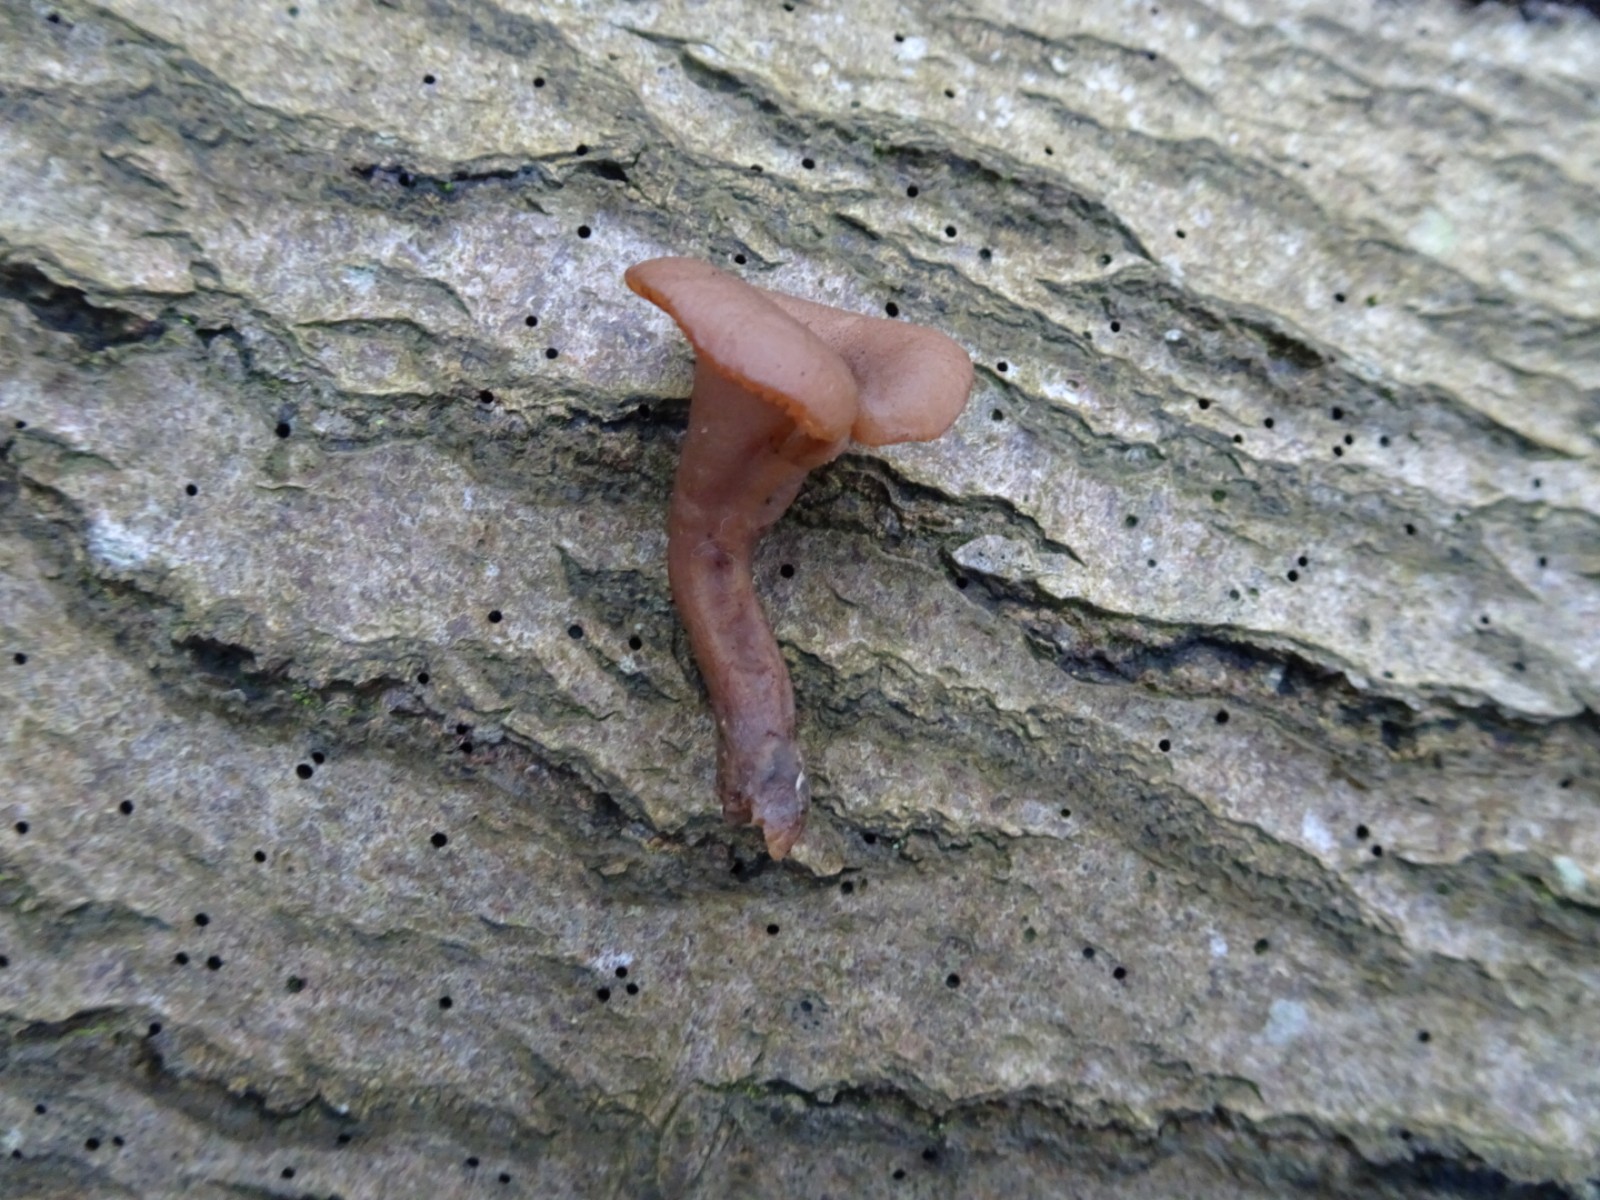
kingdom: Fungi
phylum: Basidiomycota
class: Agaricomycetes
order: Agaricales
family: Pseudoclitocybaceae
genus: Pseudoclitocybe
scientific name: Pseudoclitocybe cyathiformis
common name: almindelig bægertragthat
